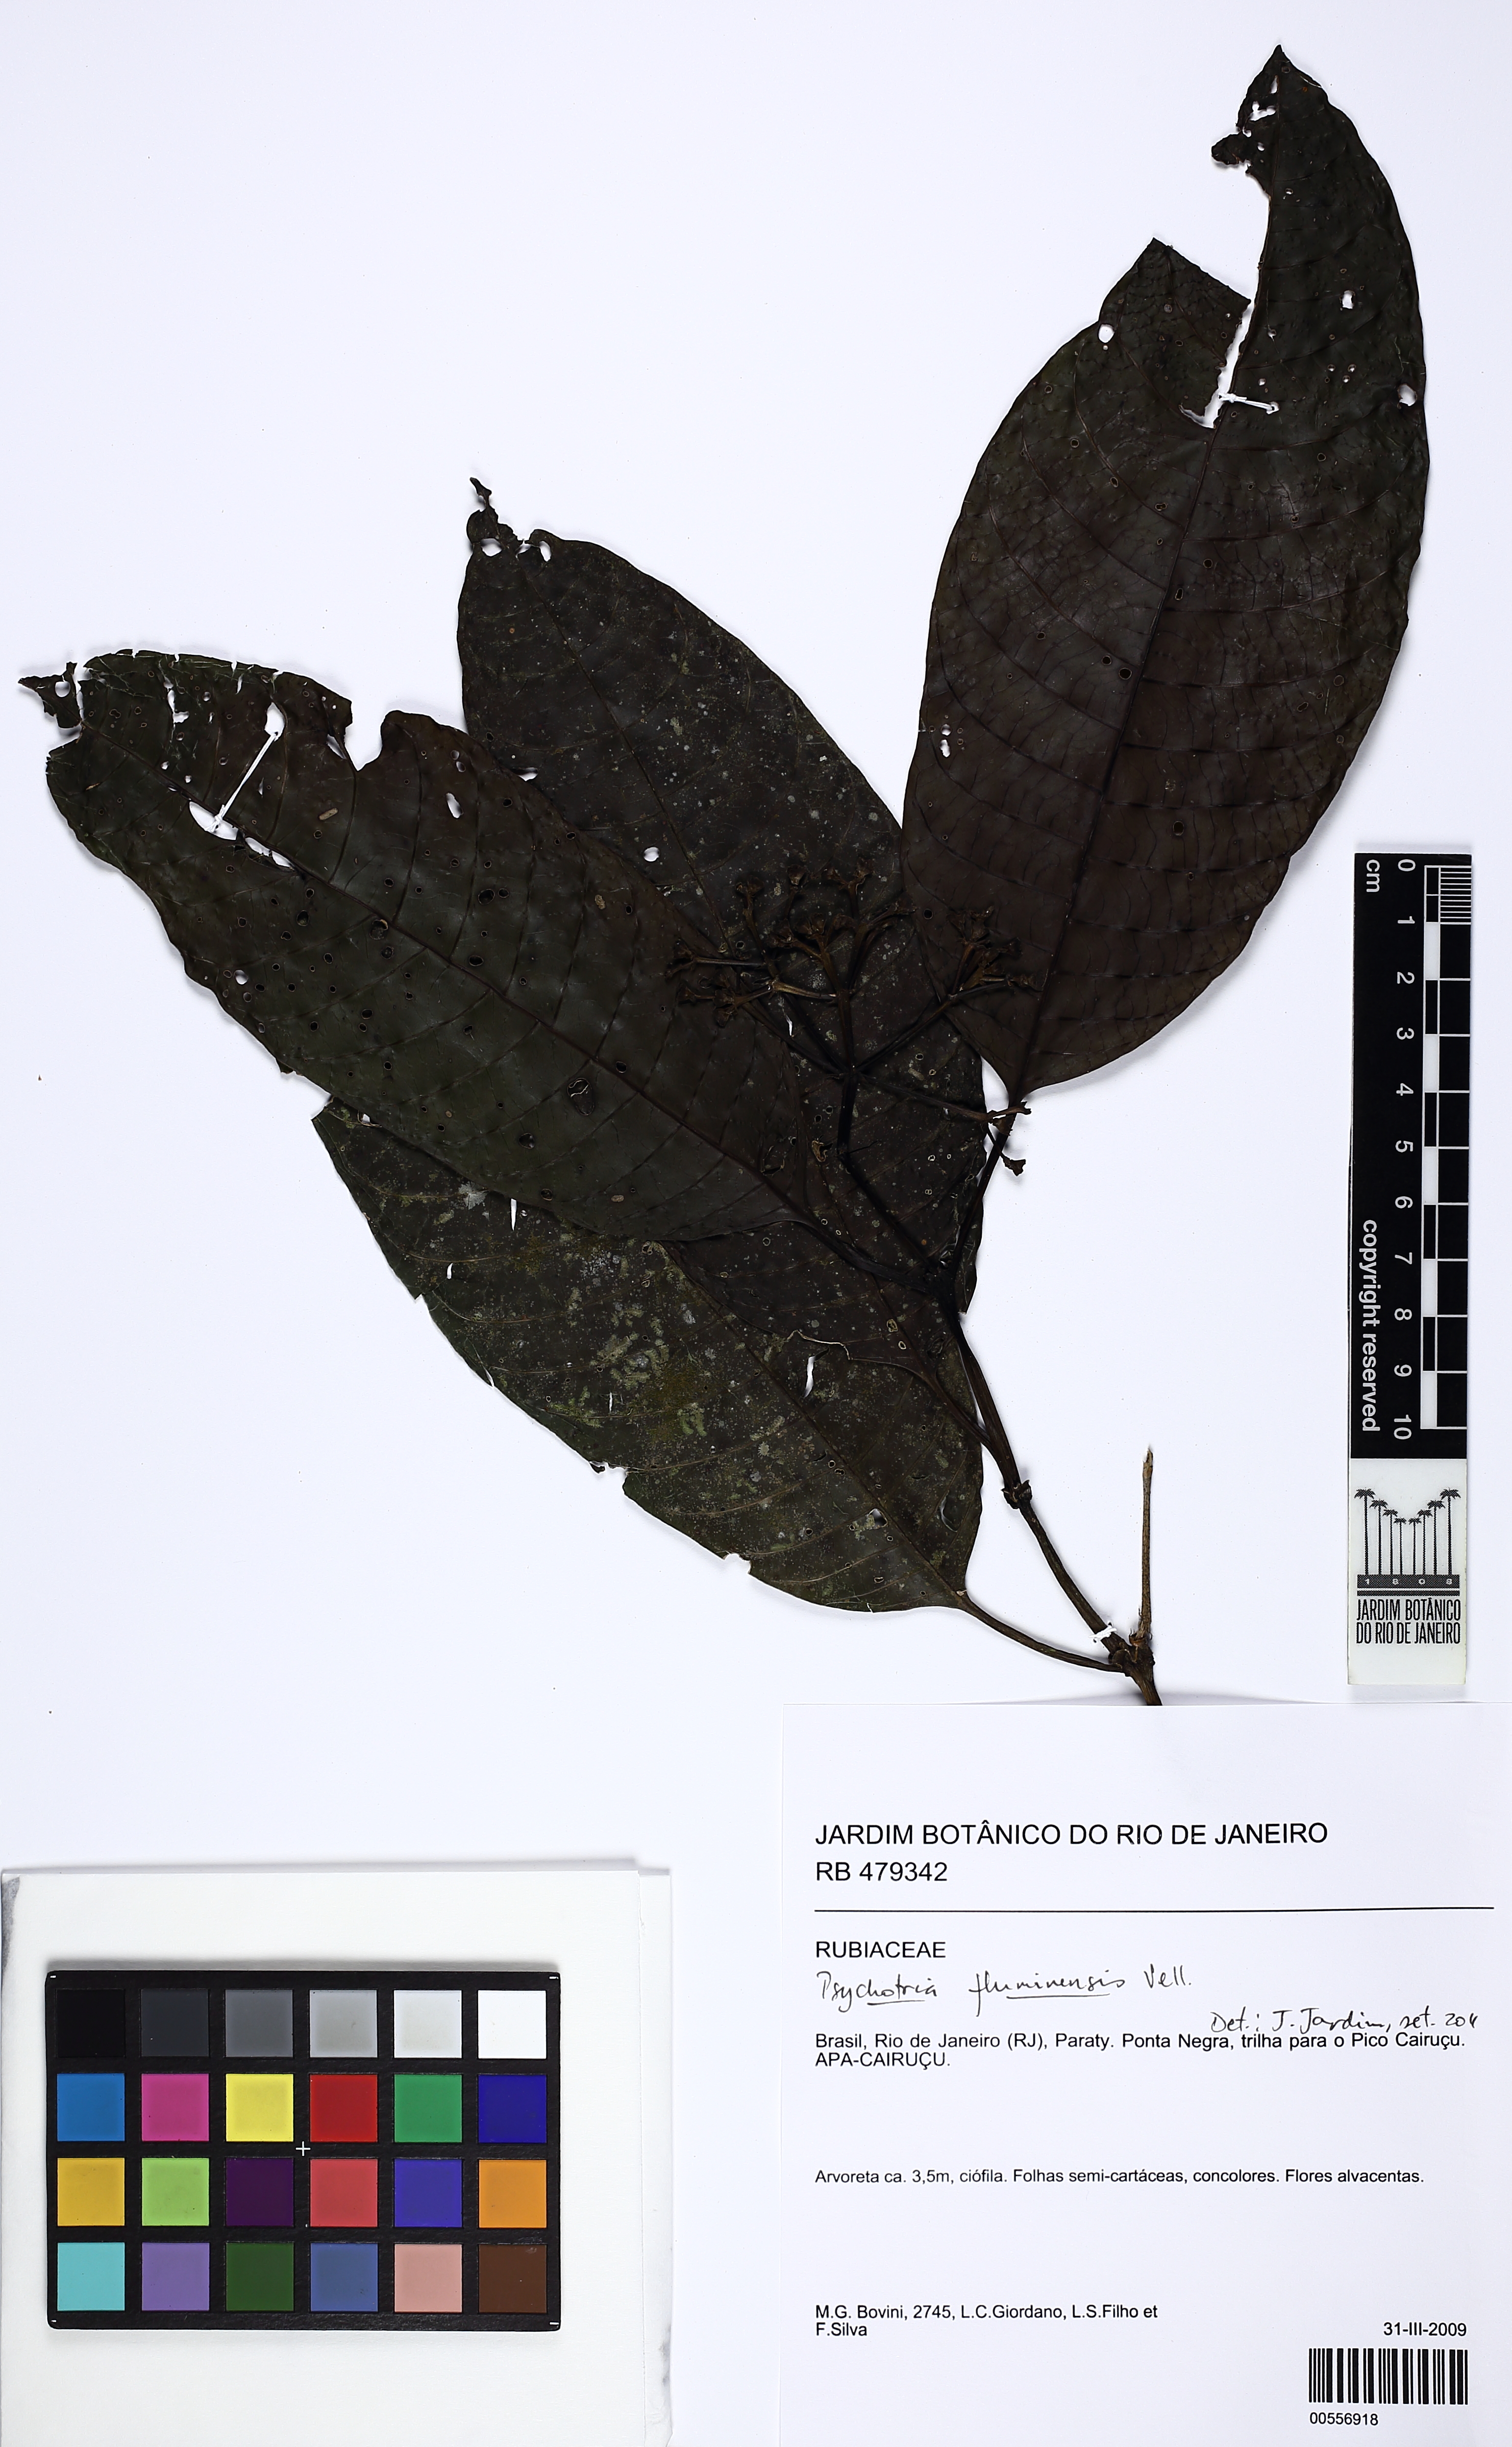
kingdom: Plantae
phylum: Tracheophyta
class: Magnoliopsida
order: Gentianales
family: Rubiaceae
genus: Psychotria
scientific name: Psychotria fluminensis
